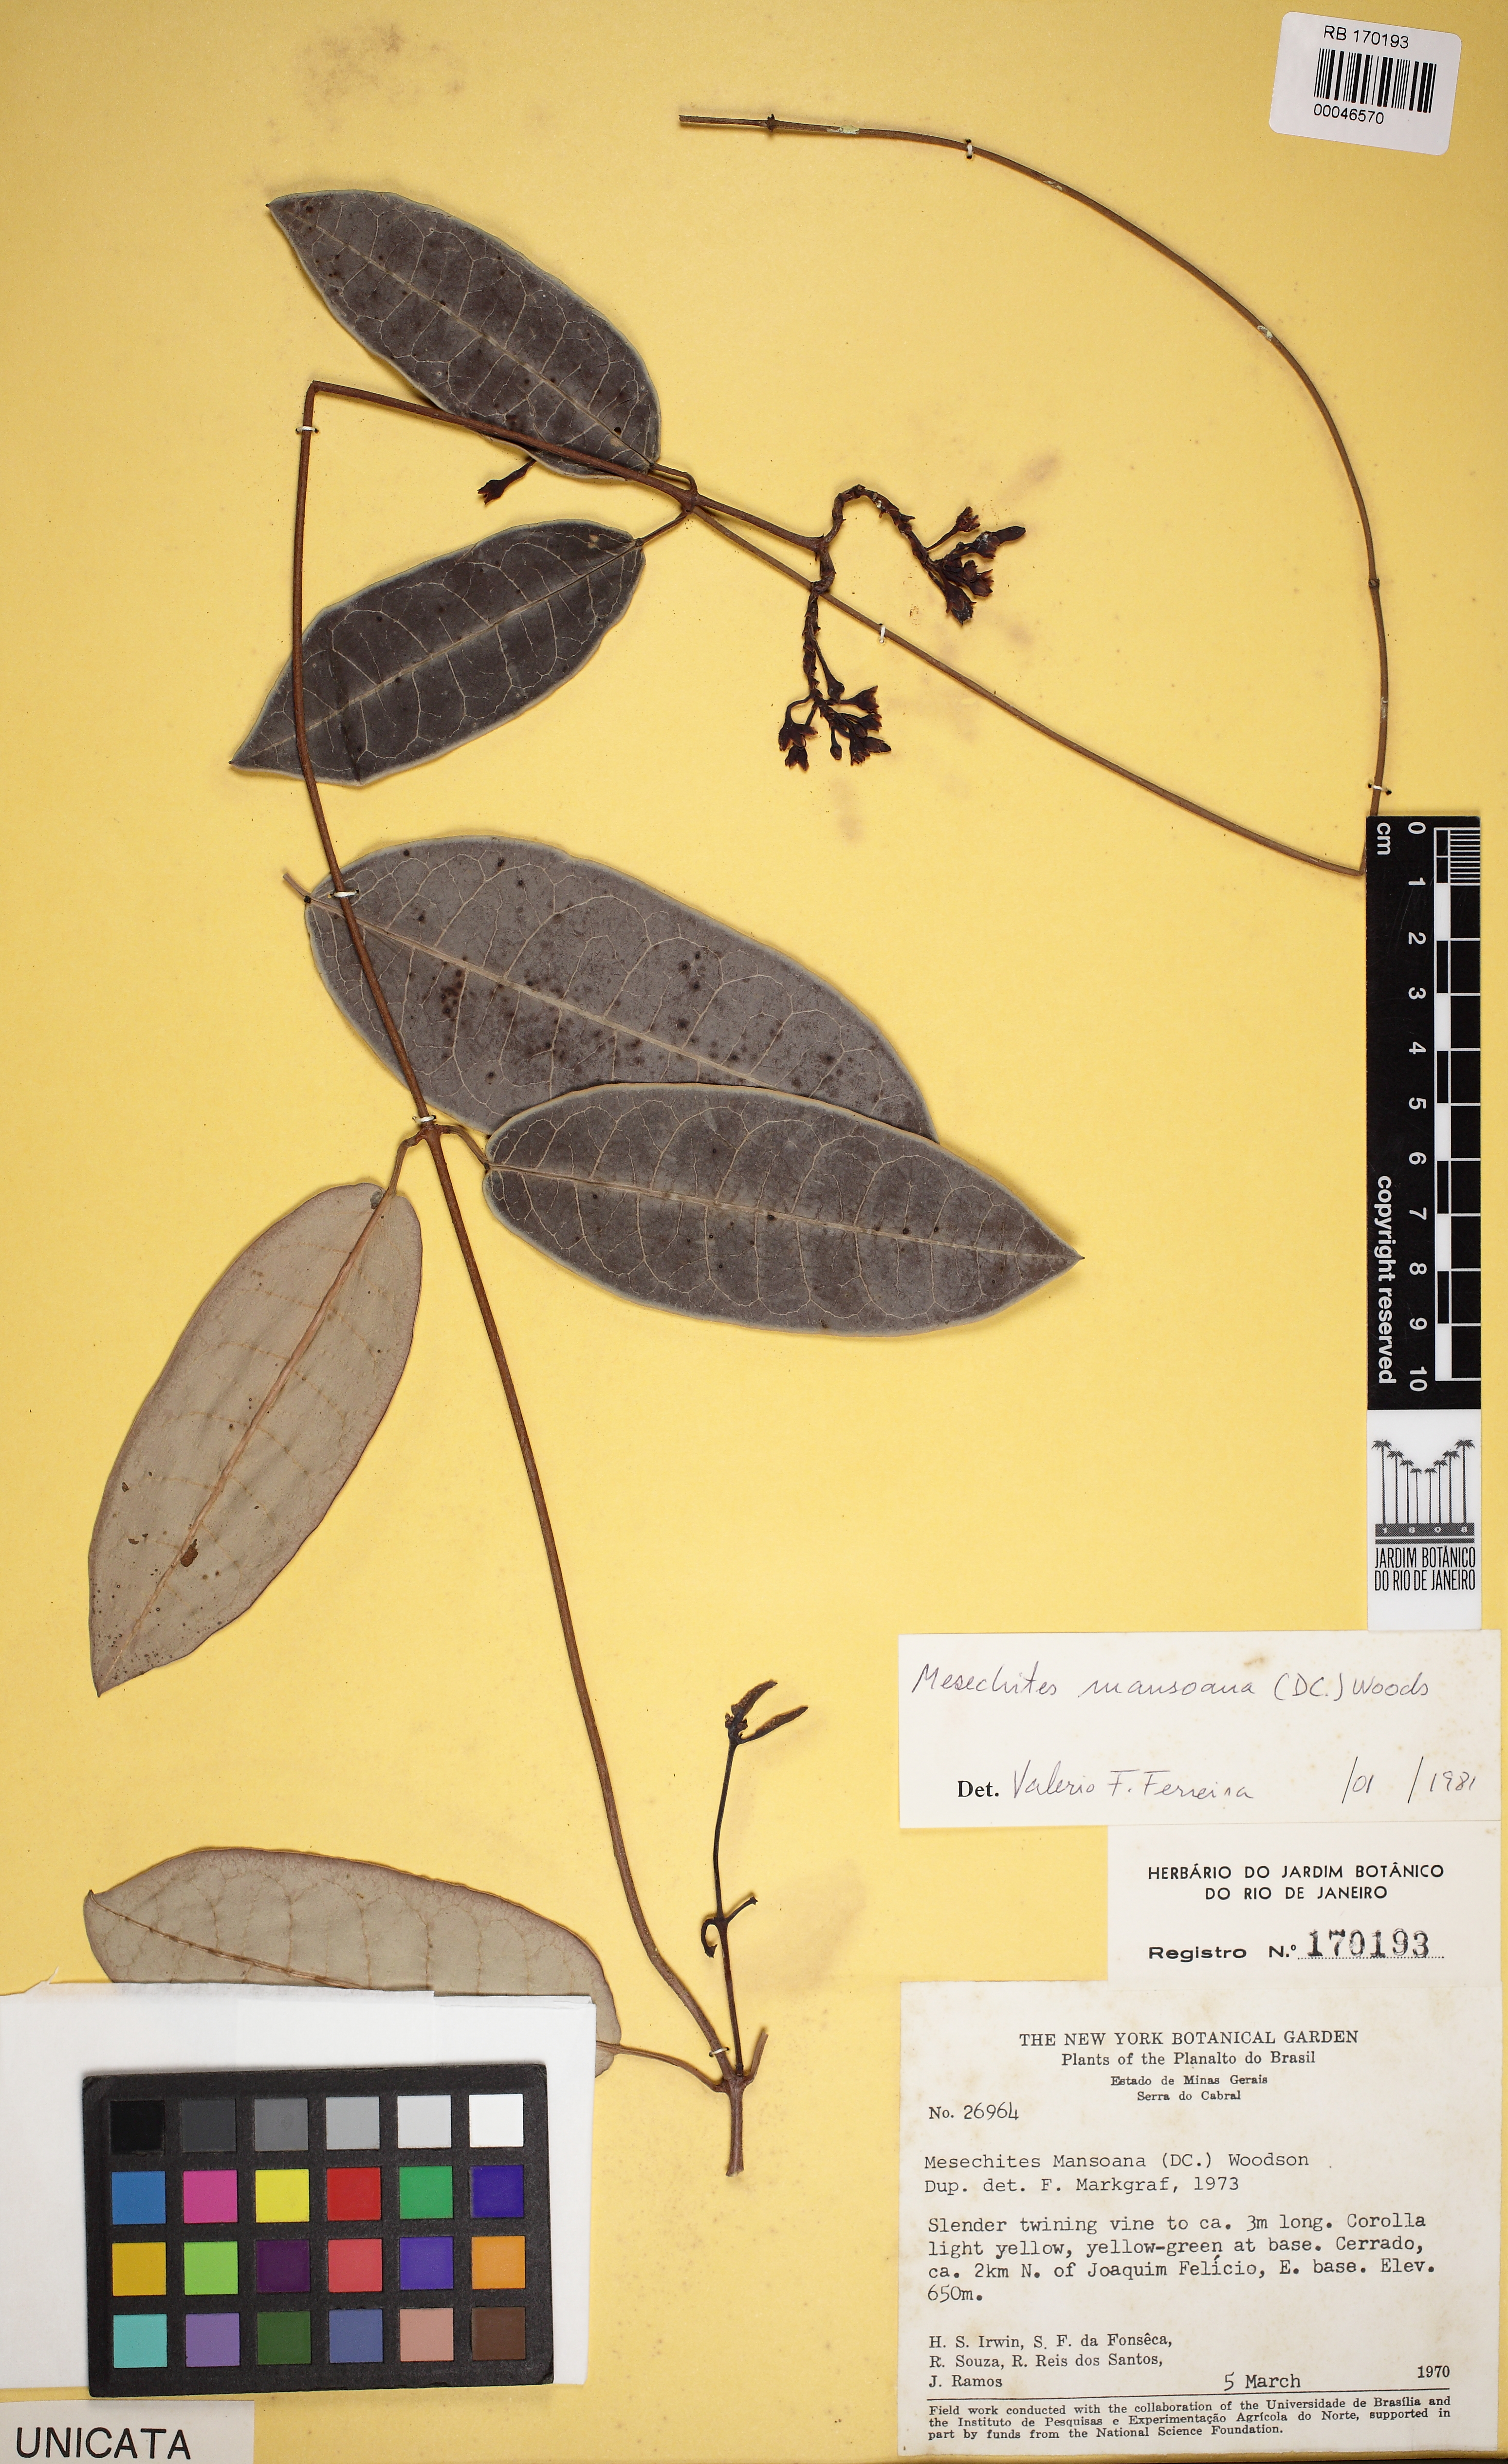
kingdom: Plantae
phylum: Tracheophyta
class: Magnoliopsida
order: Gentianales
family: Apocynaceae
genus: Mesechites
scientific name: Mesechites mansoanus
